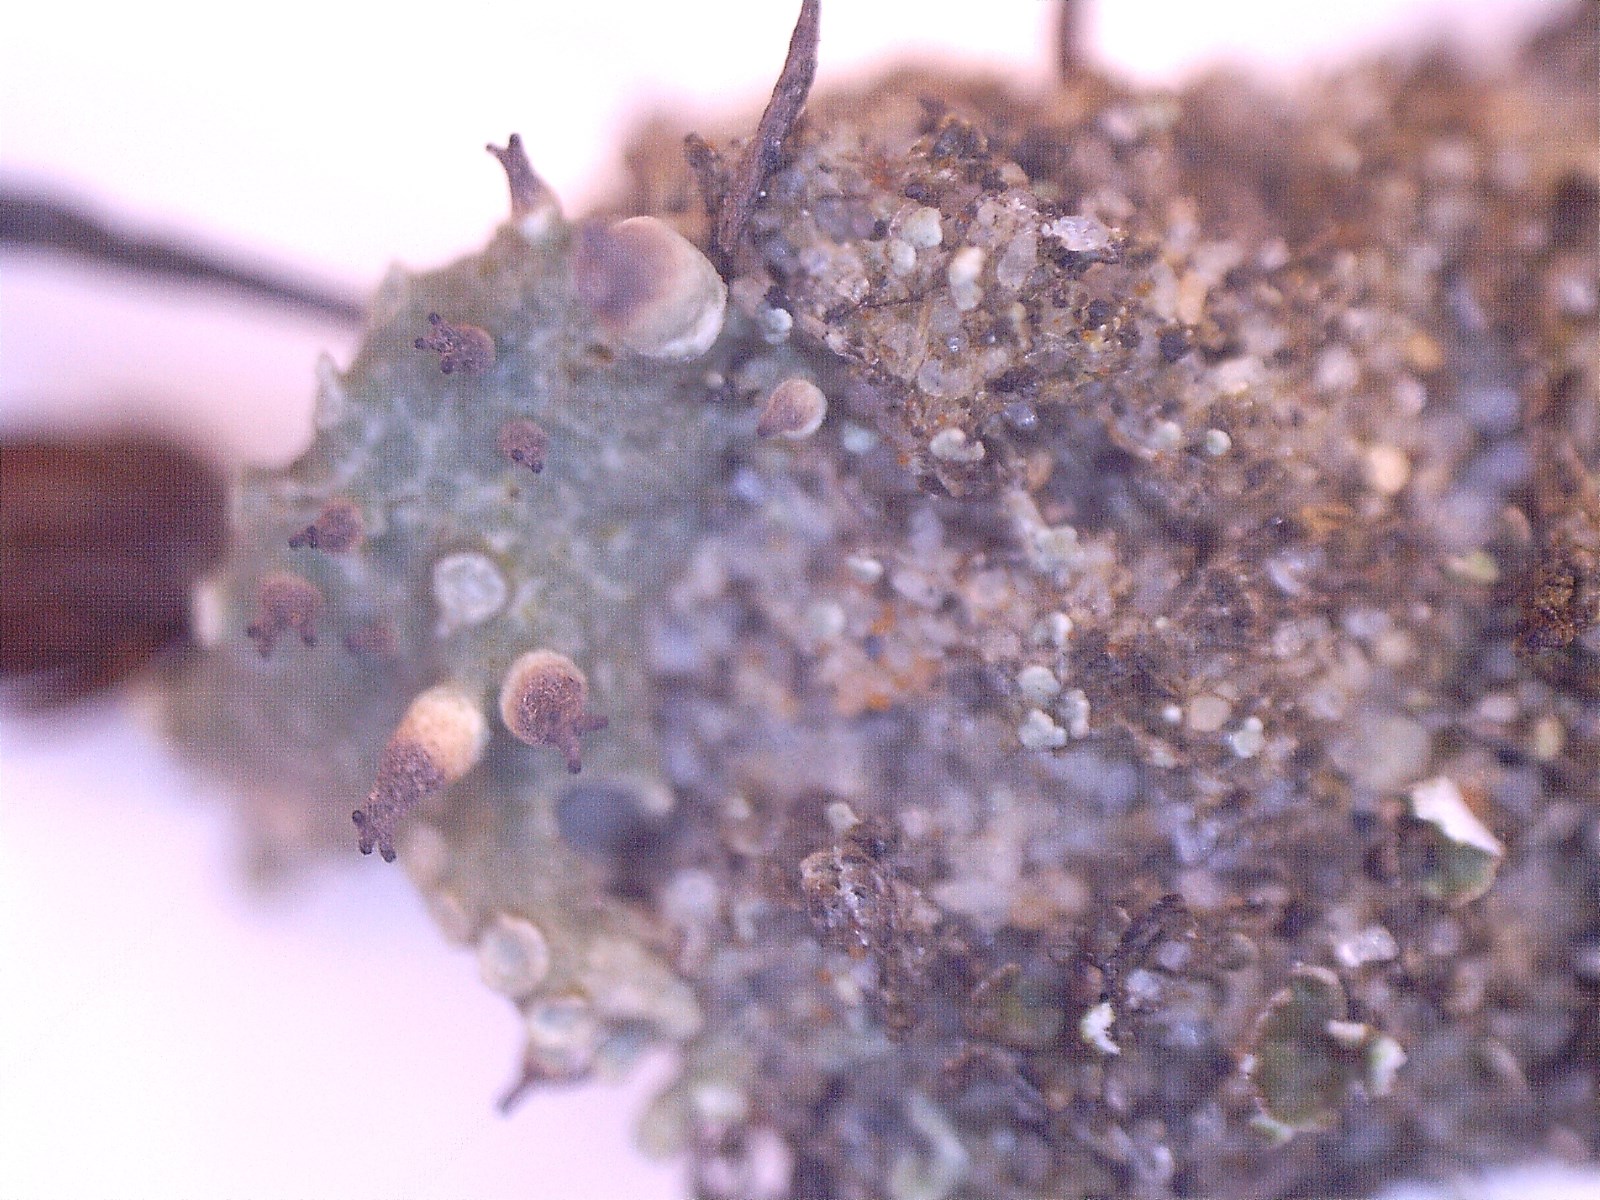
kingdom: Fungi
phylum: Ascomycota
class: Lecanoromycetes
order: Lecanorales
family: Cladoniaceae
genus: Cladonia
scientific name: Cladonia uncialis
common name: pigget bægerlav
